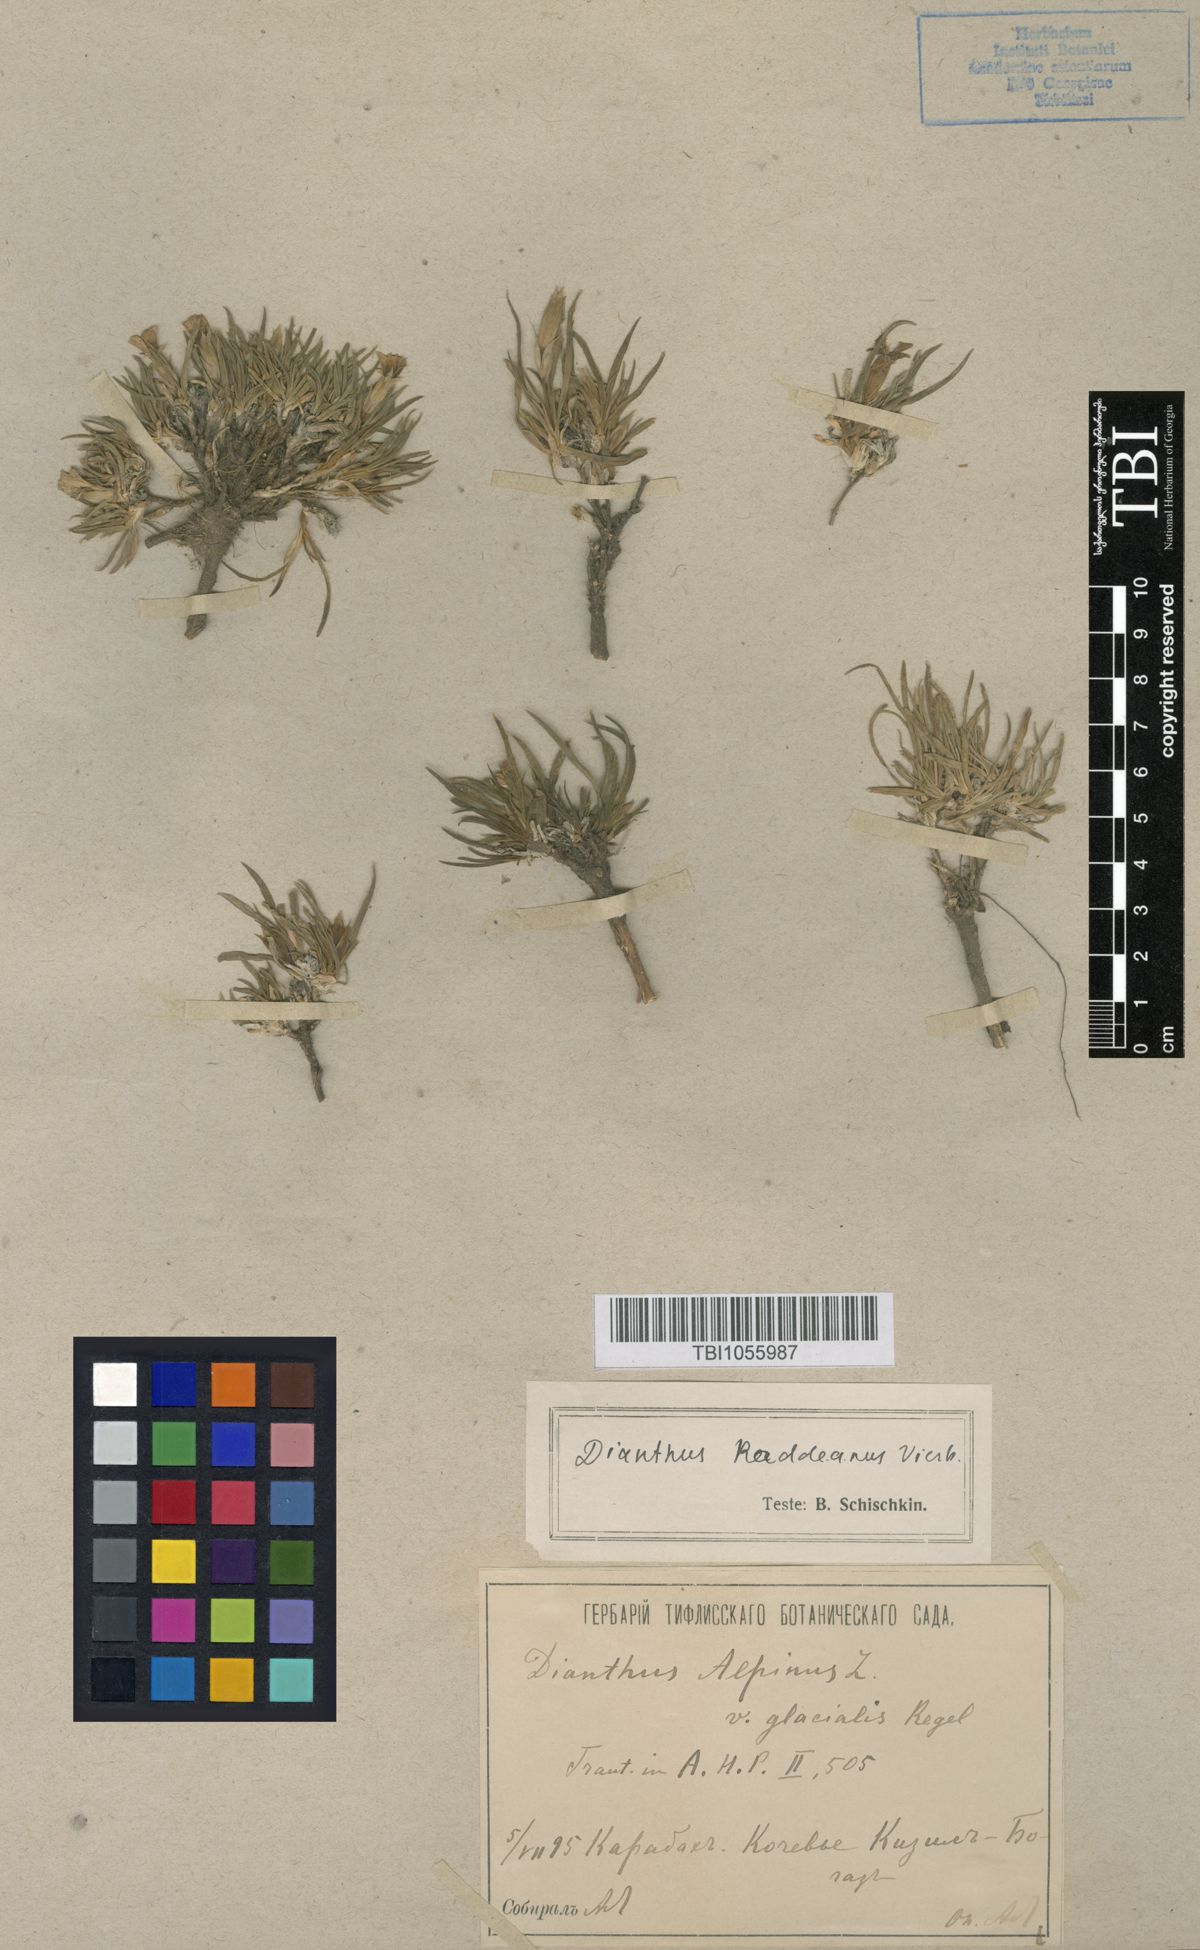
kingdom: Plantae
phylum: Tracheophyta
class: Magnoliopsida
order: Caryophyllales
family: Caryophyllaceae
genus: Dianthus
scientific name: Dianthus raddeanus
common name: Radde's pink
